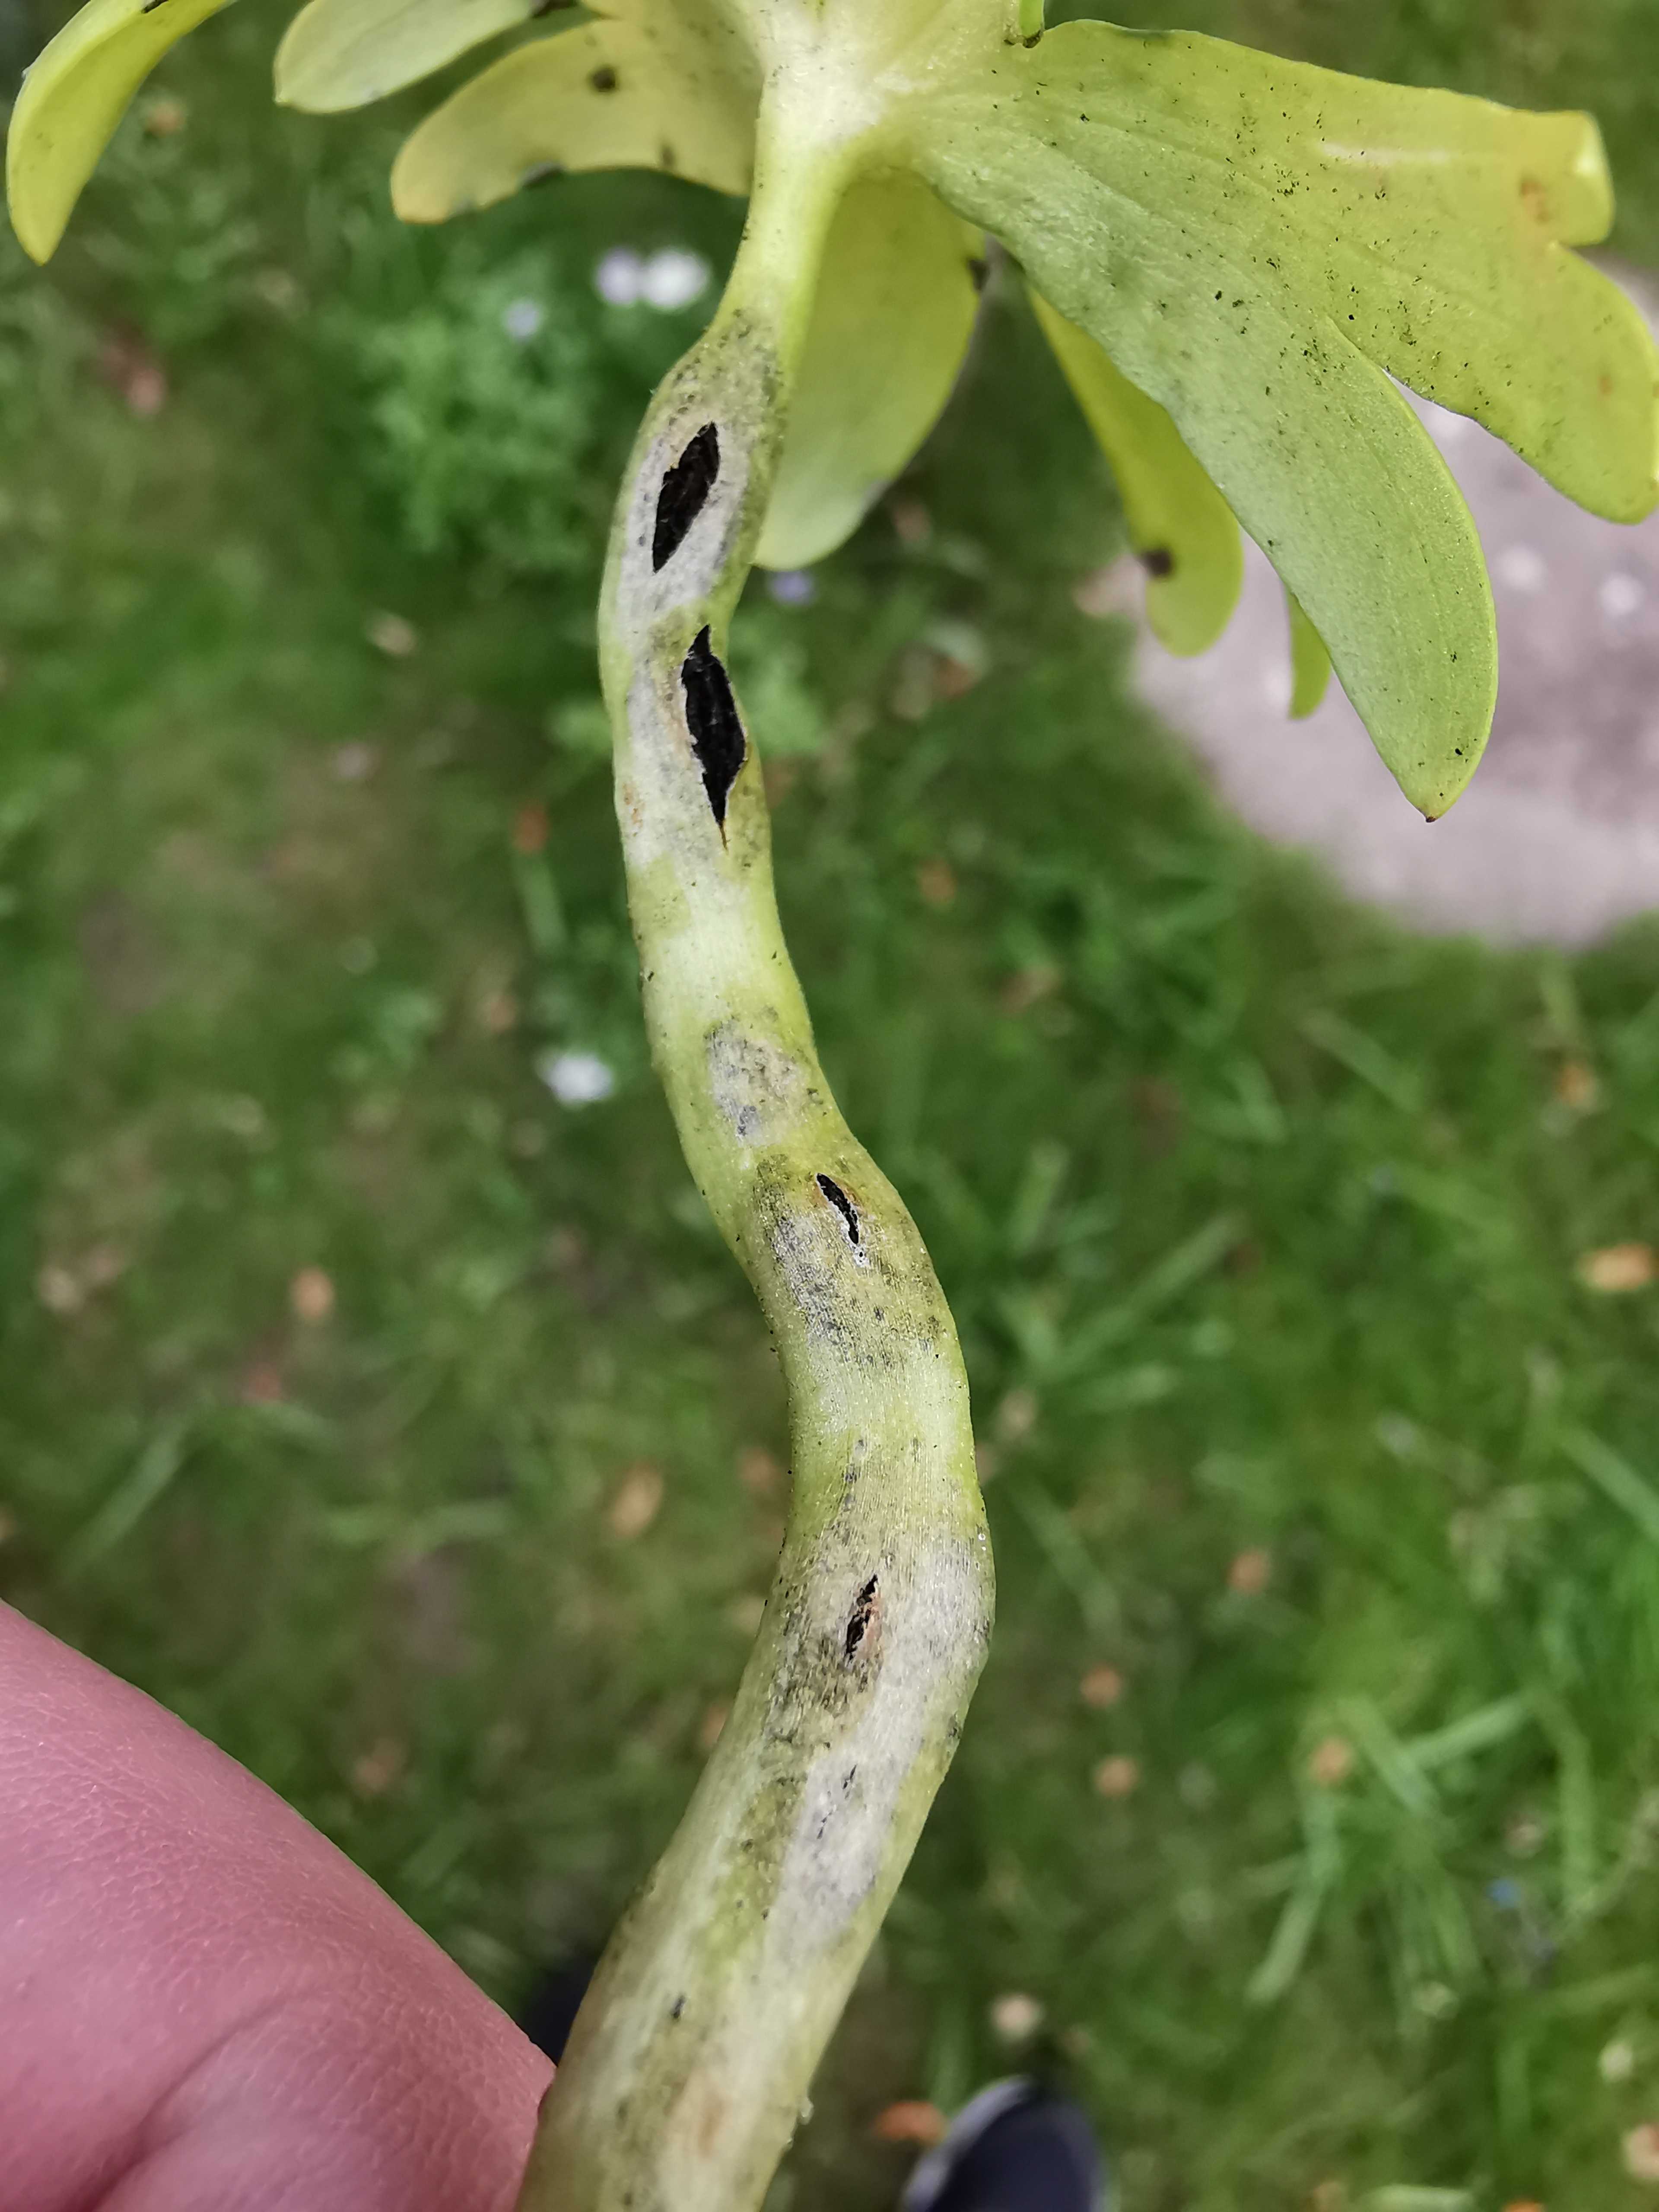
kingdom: Fungi
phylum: Basidiomycota
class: Ustilaginomycetes
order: Urocystidales
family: Urocystidaceae
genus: Urocystis
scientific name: Urocystis eranthidis
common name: erantis-brand
